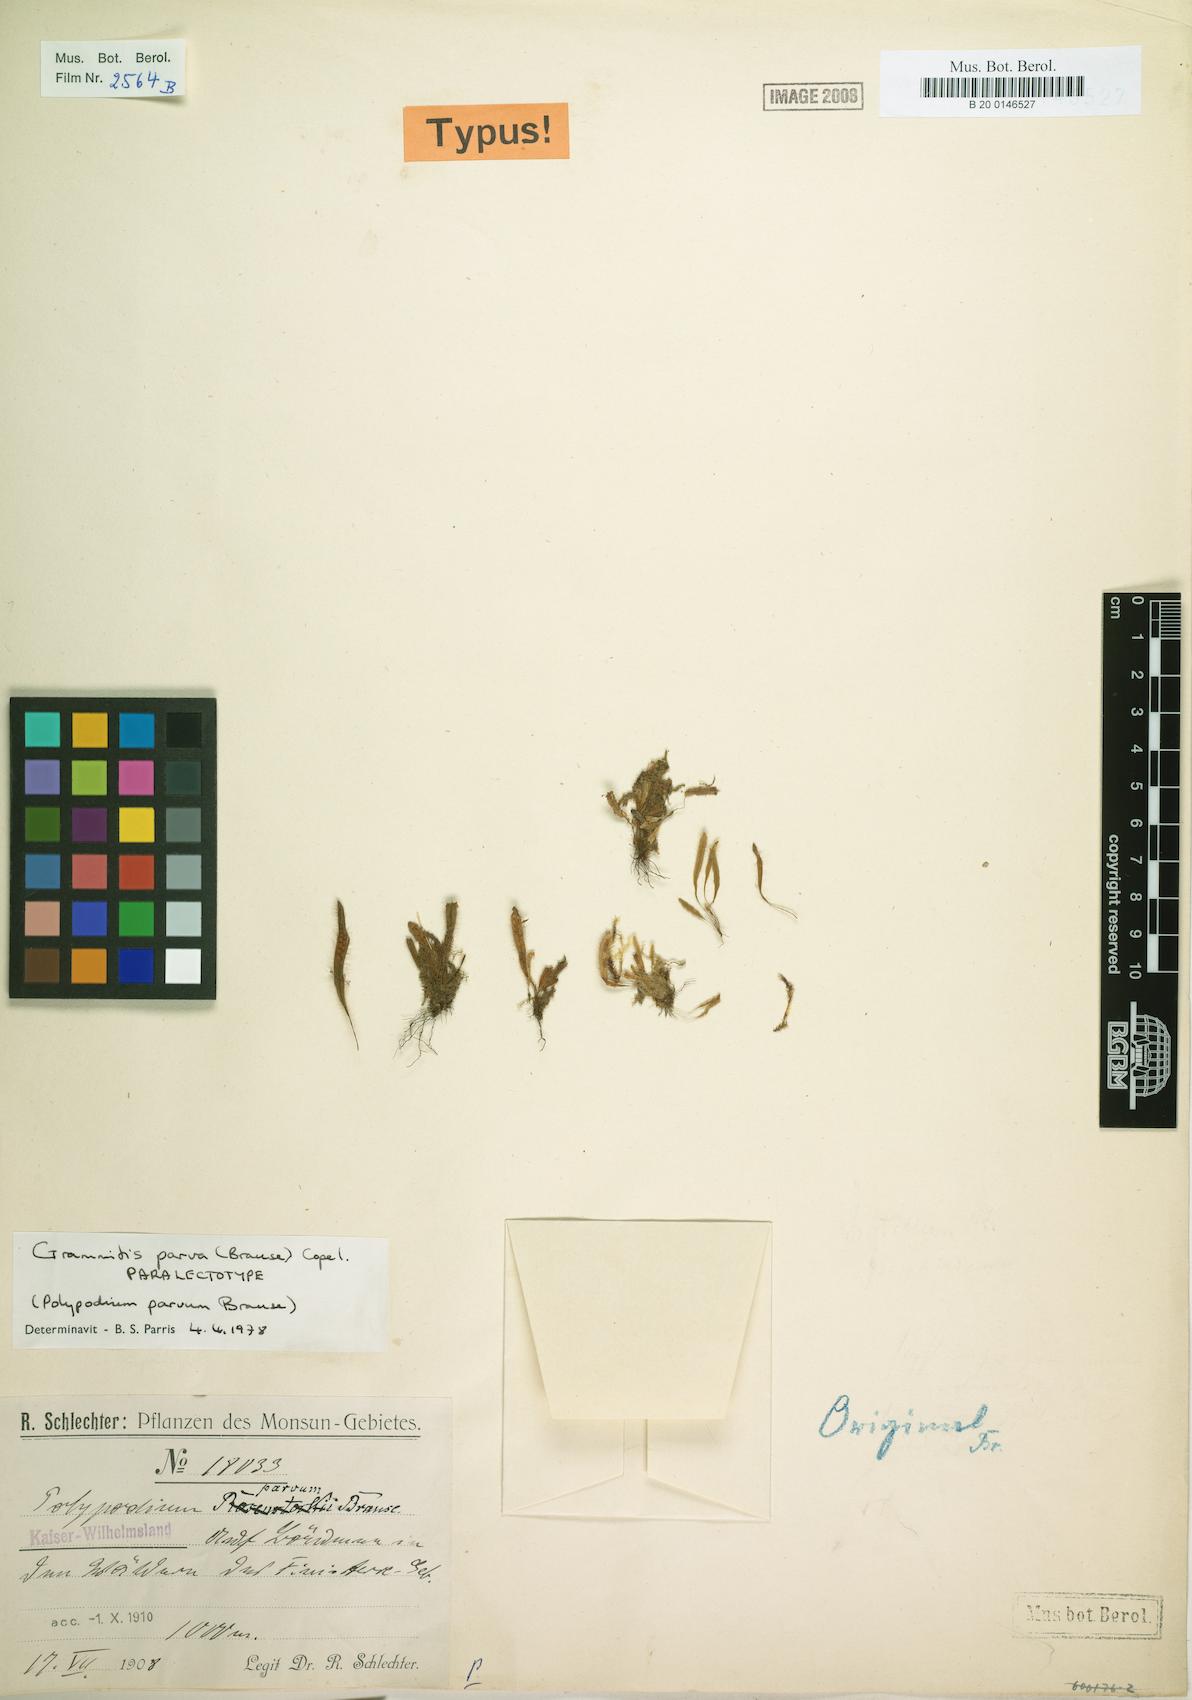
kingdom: Plantae
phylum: Tracheophyta
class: Polypodiopsida
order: Polypodiales
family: Polypodiaceae
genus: Oreogrammitis
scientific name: Oreogrammitis parva
